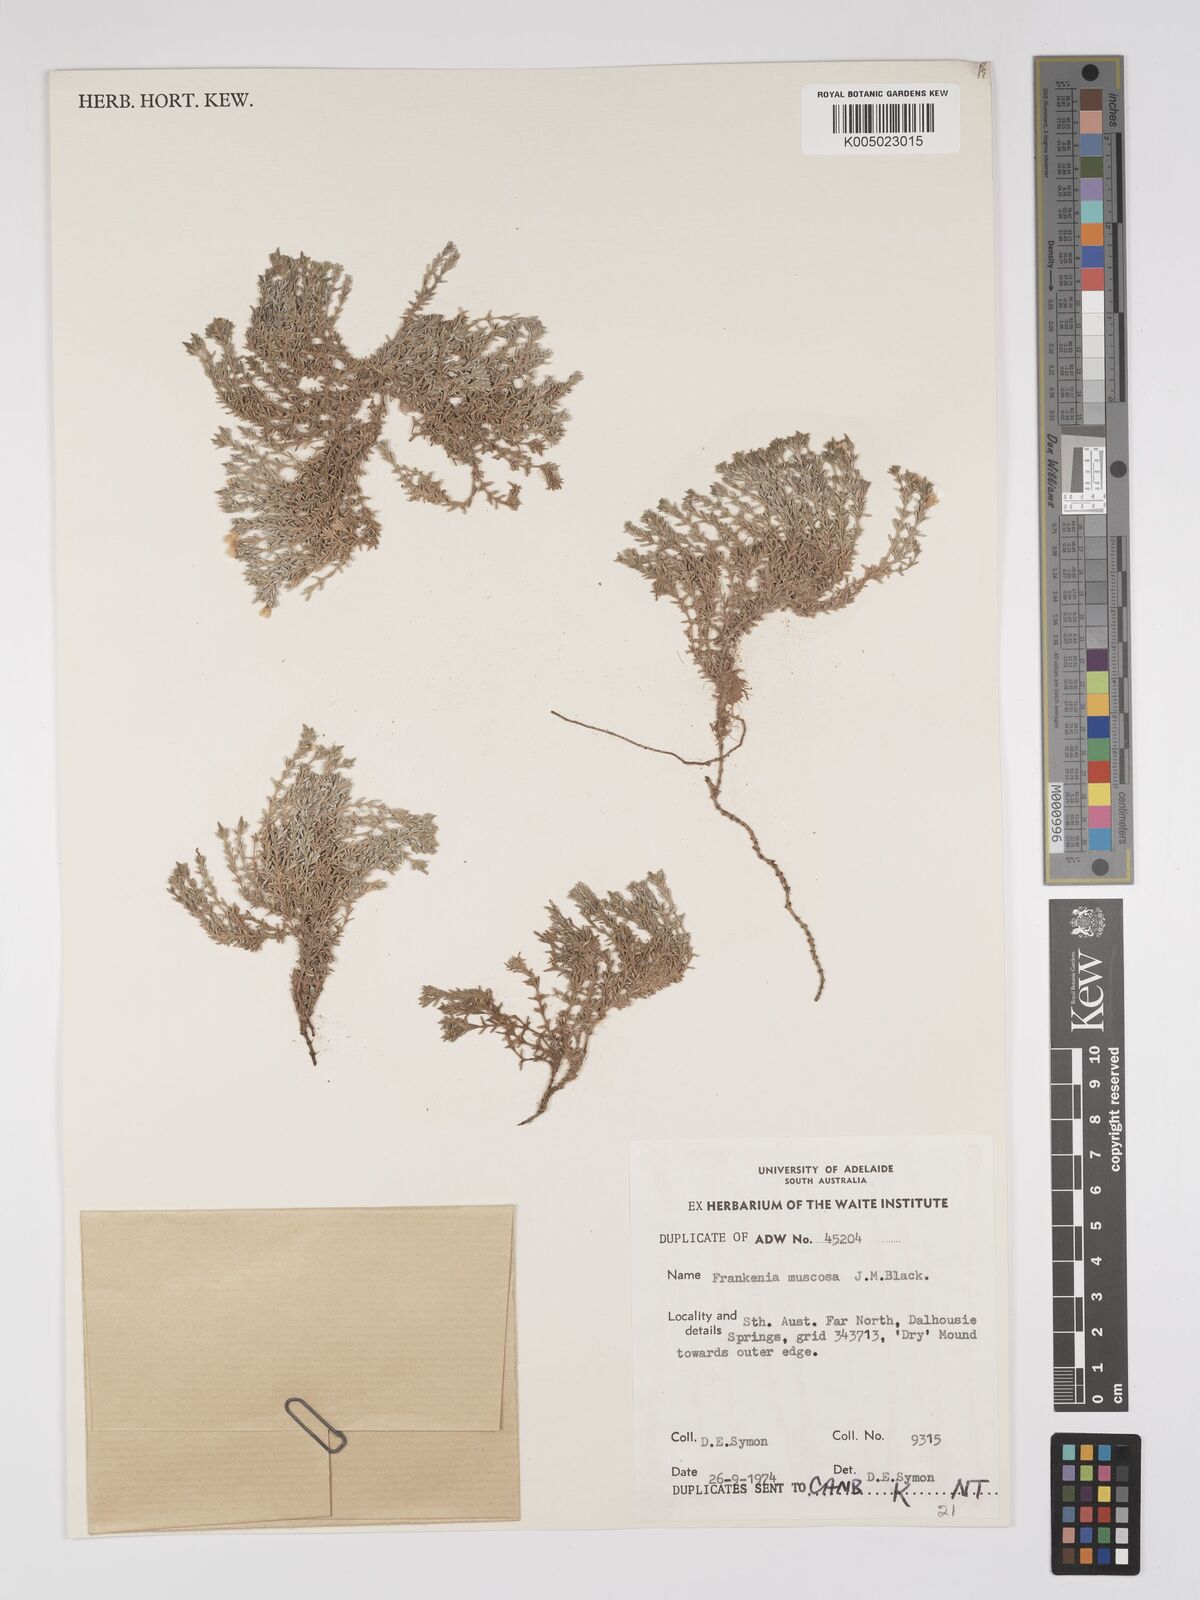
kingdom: Plantae
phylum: Tracheophyta
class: Magnoliopsida
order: Caryophyllales
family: Frankeniaceae
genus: Frankenia
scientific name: Frankenia muscosa
